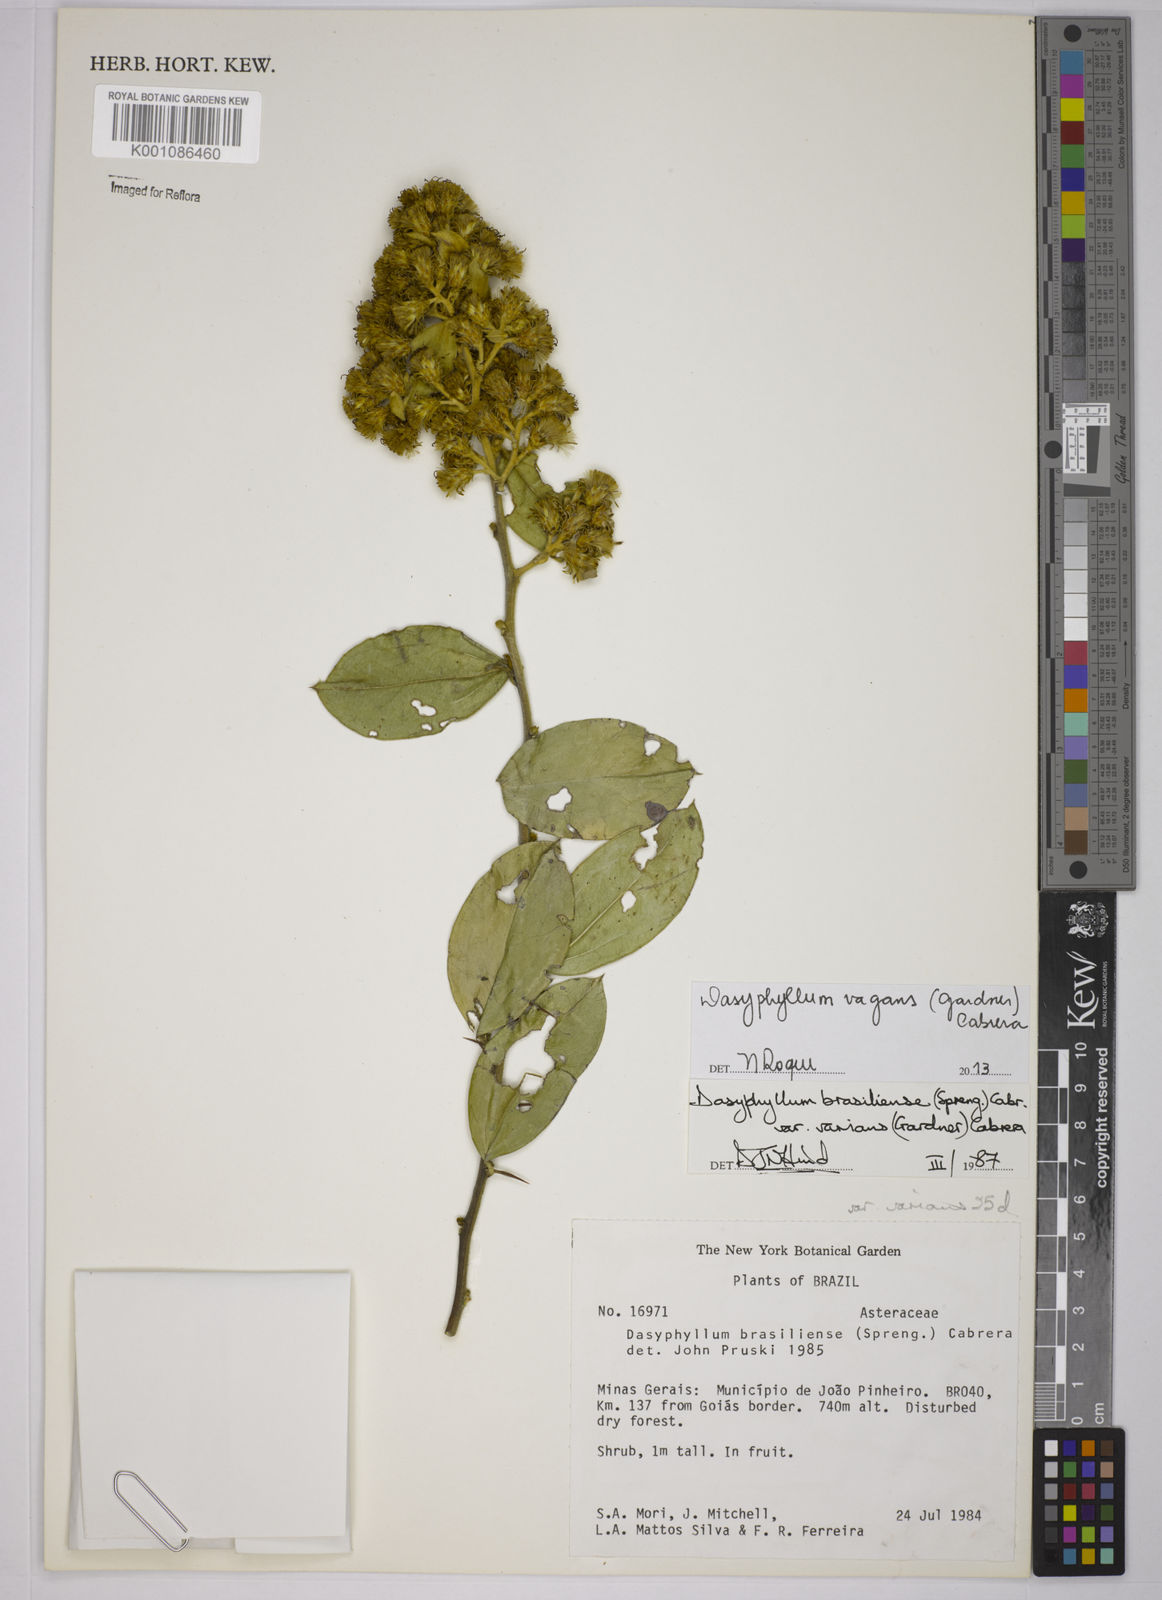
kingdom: Plantae
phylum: Tracheophyta
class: Magnoliopsida
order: Asterales
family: Asteraceae
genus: Dasyphyllum
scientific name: Dasyphyllum vagans
